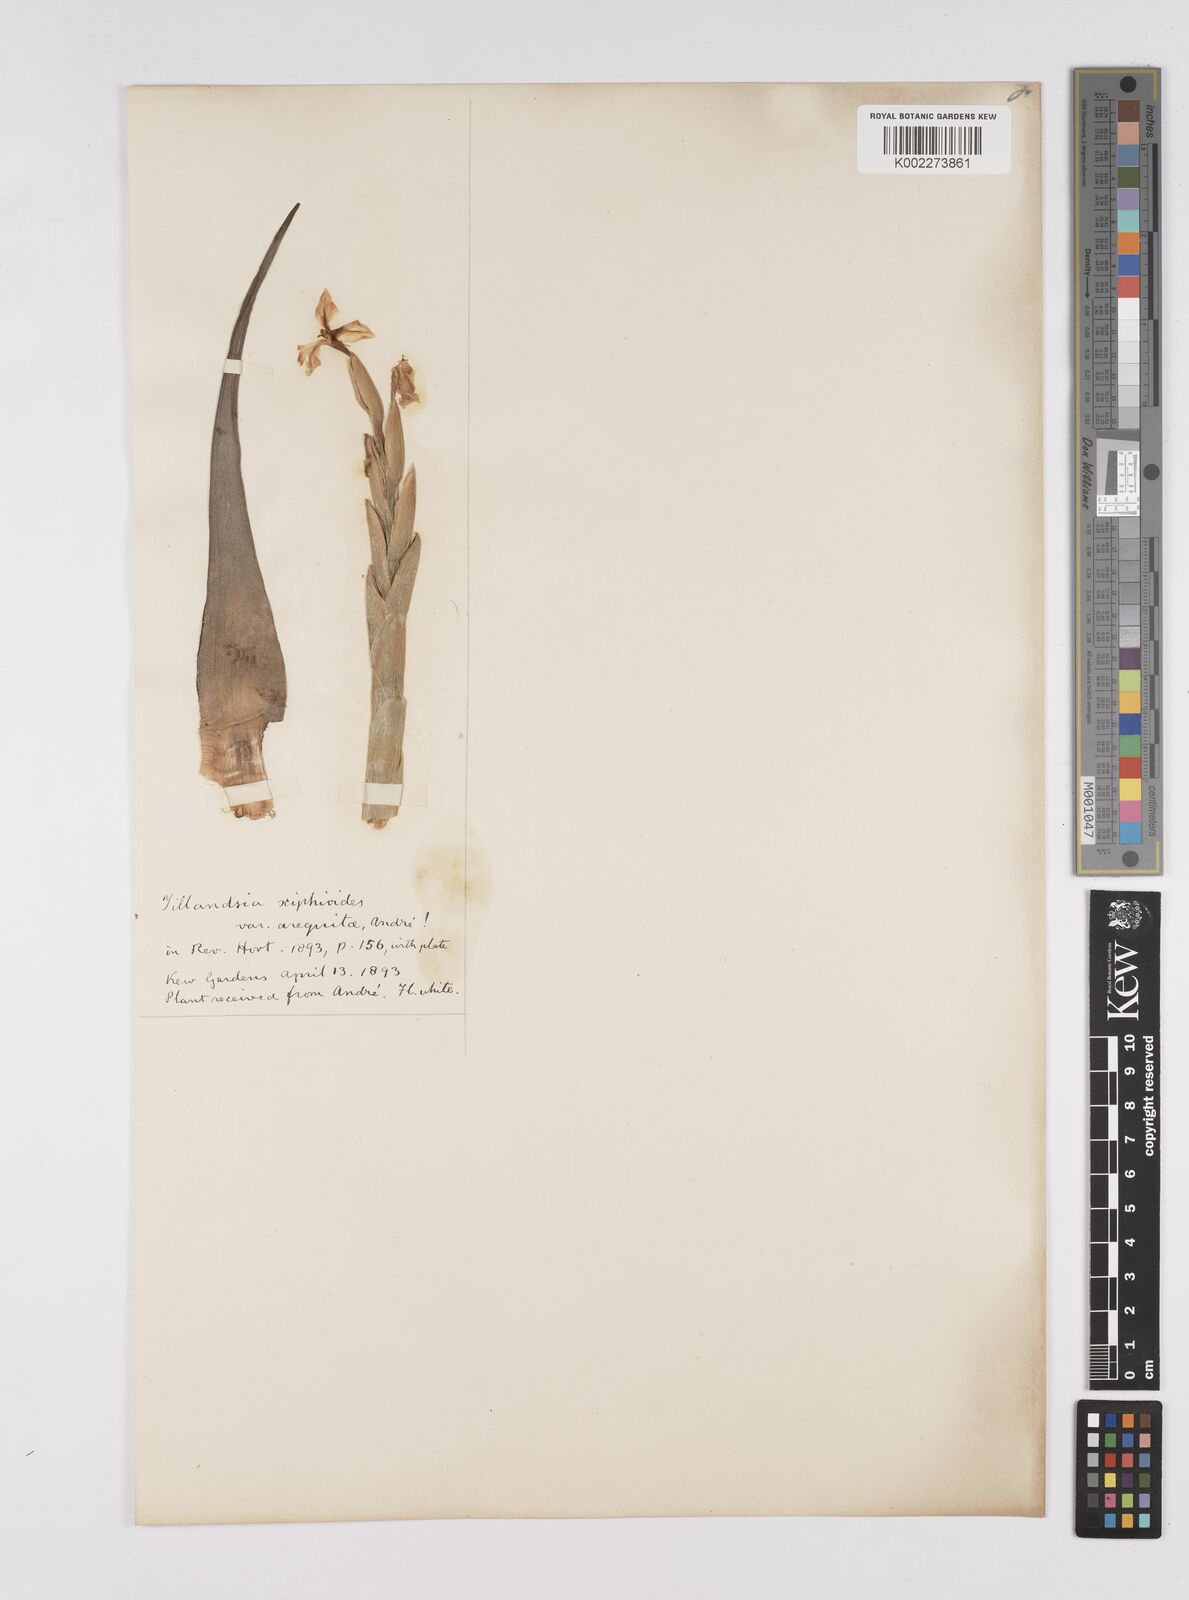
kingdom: Plantae
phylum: Tracheophyta
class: Liliopsida
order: Poales
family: Bromeliaceae
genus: Tillandsia
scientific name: Tillandsia arequitae
